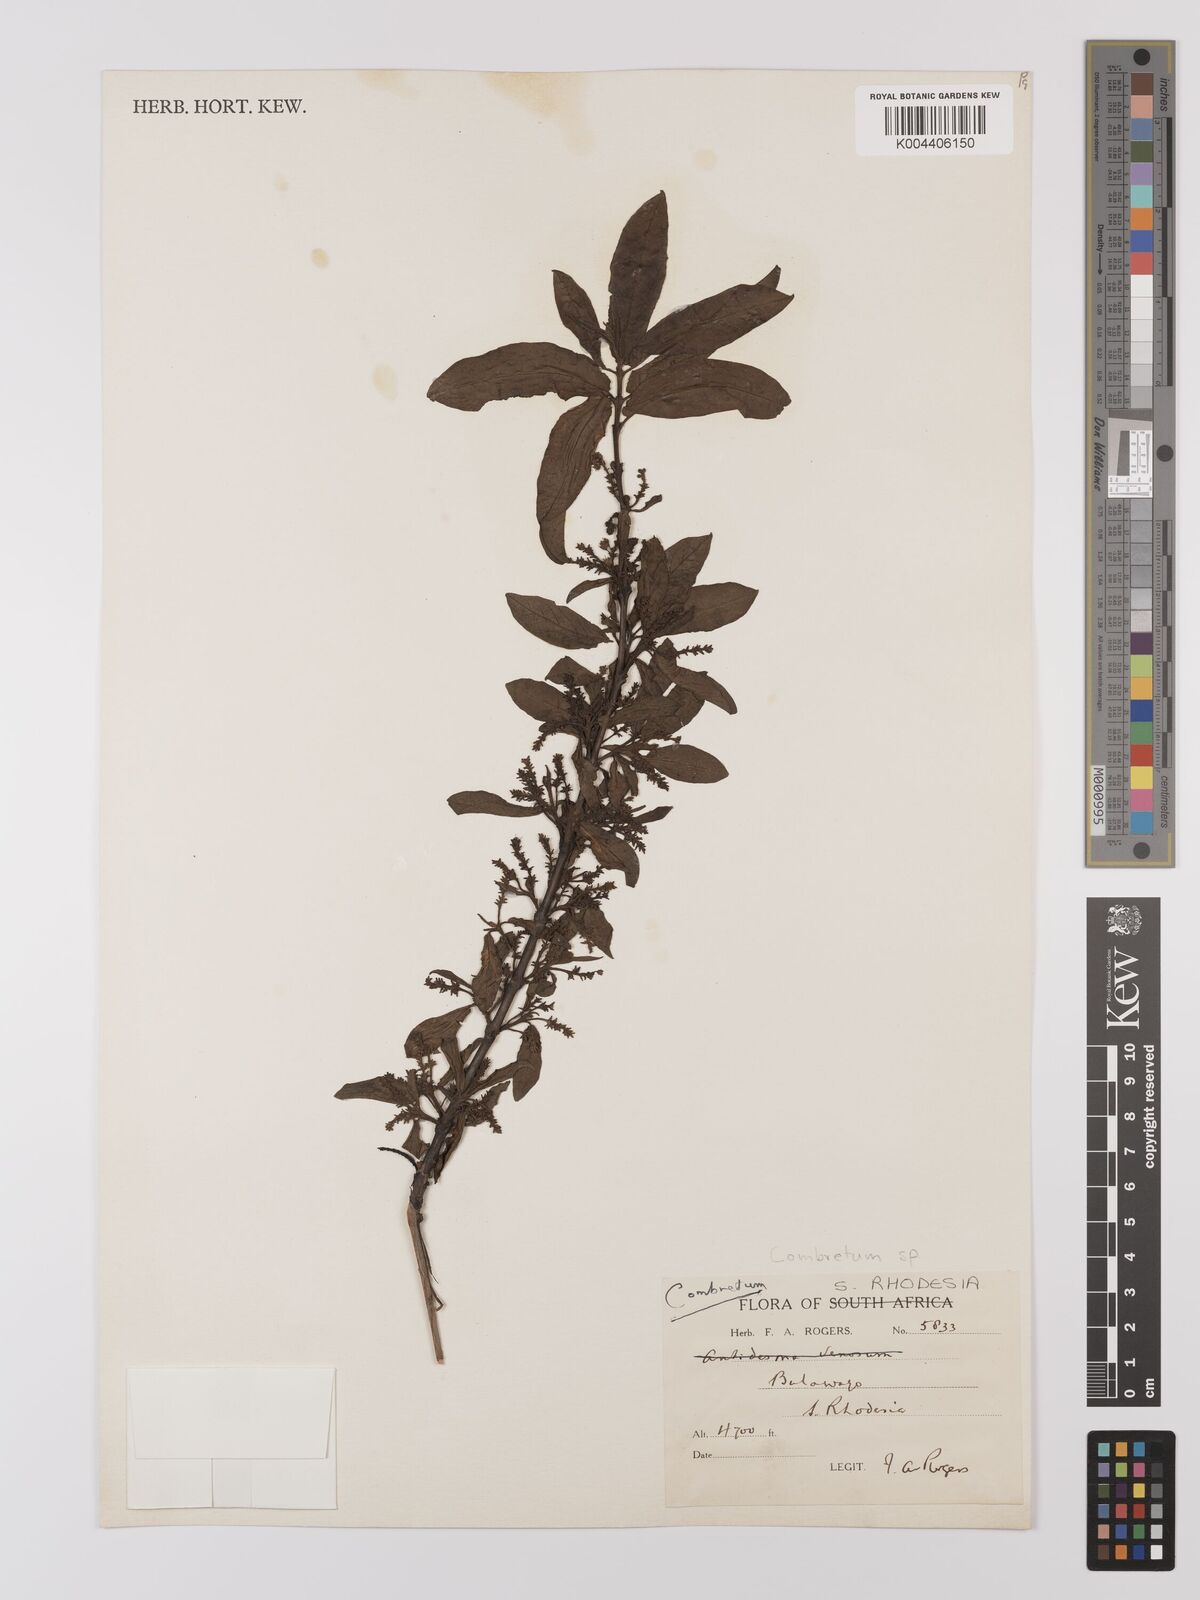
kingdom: Plantae
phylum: Tracheophyta
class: Magnoliopsida
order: Myrtales
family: Combretaceae
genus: Combretum
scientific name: Combretum
